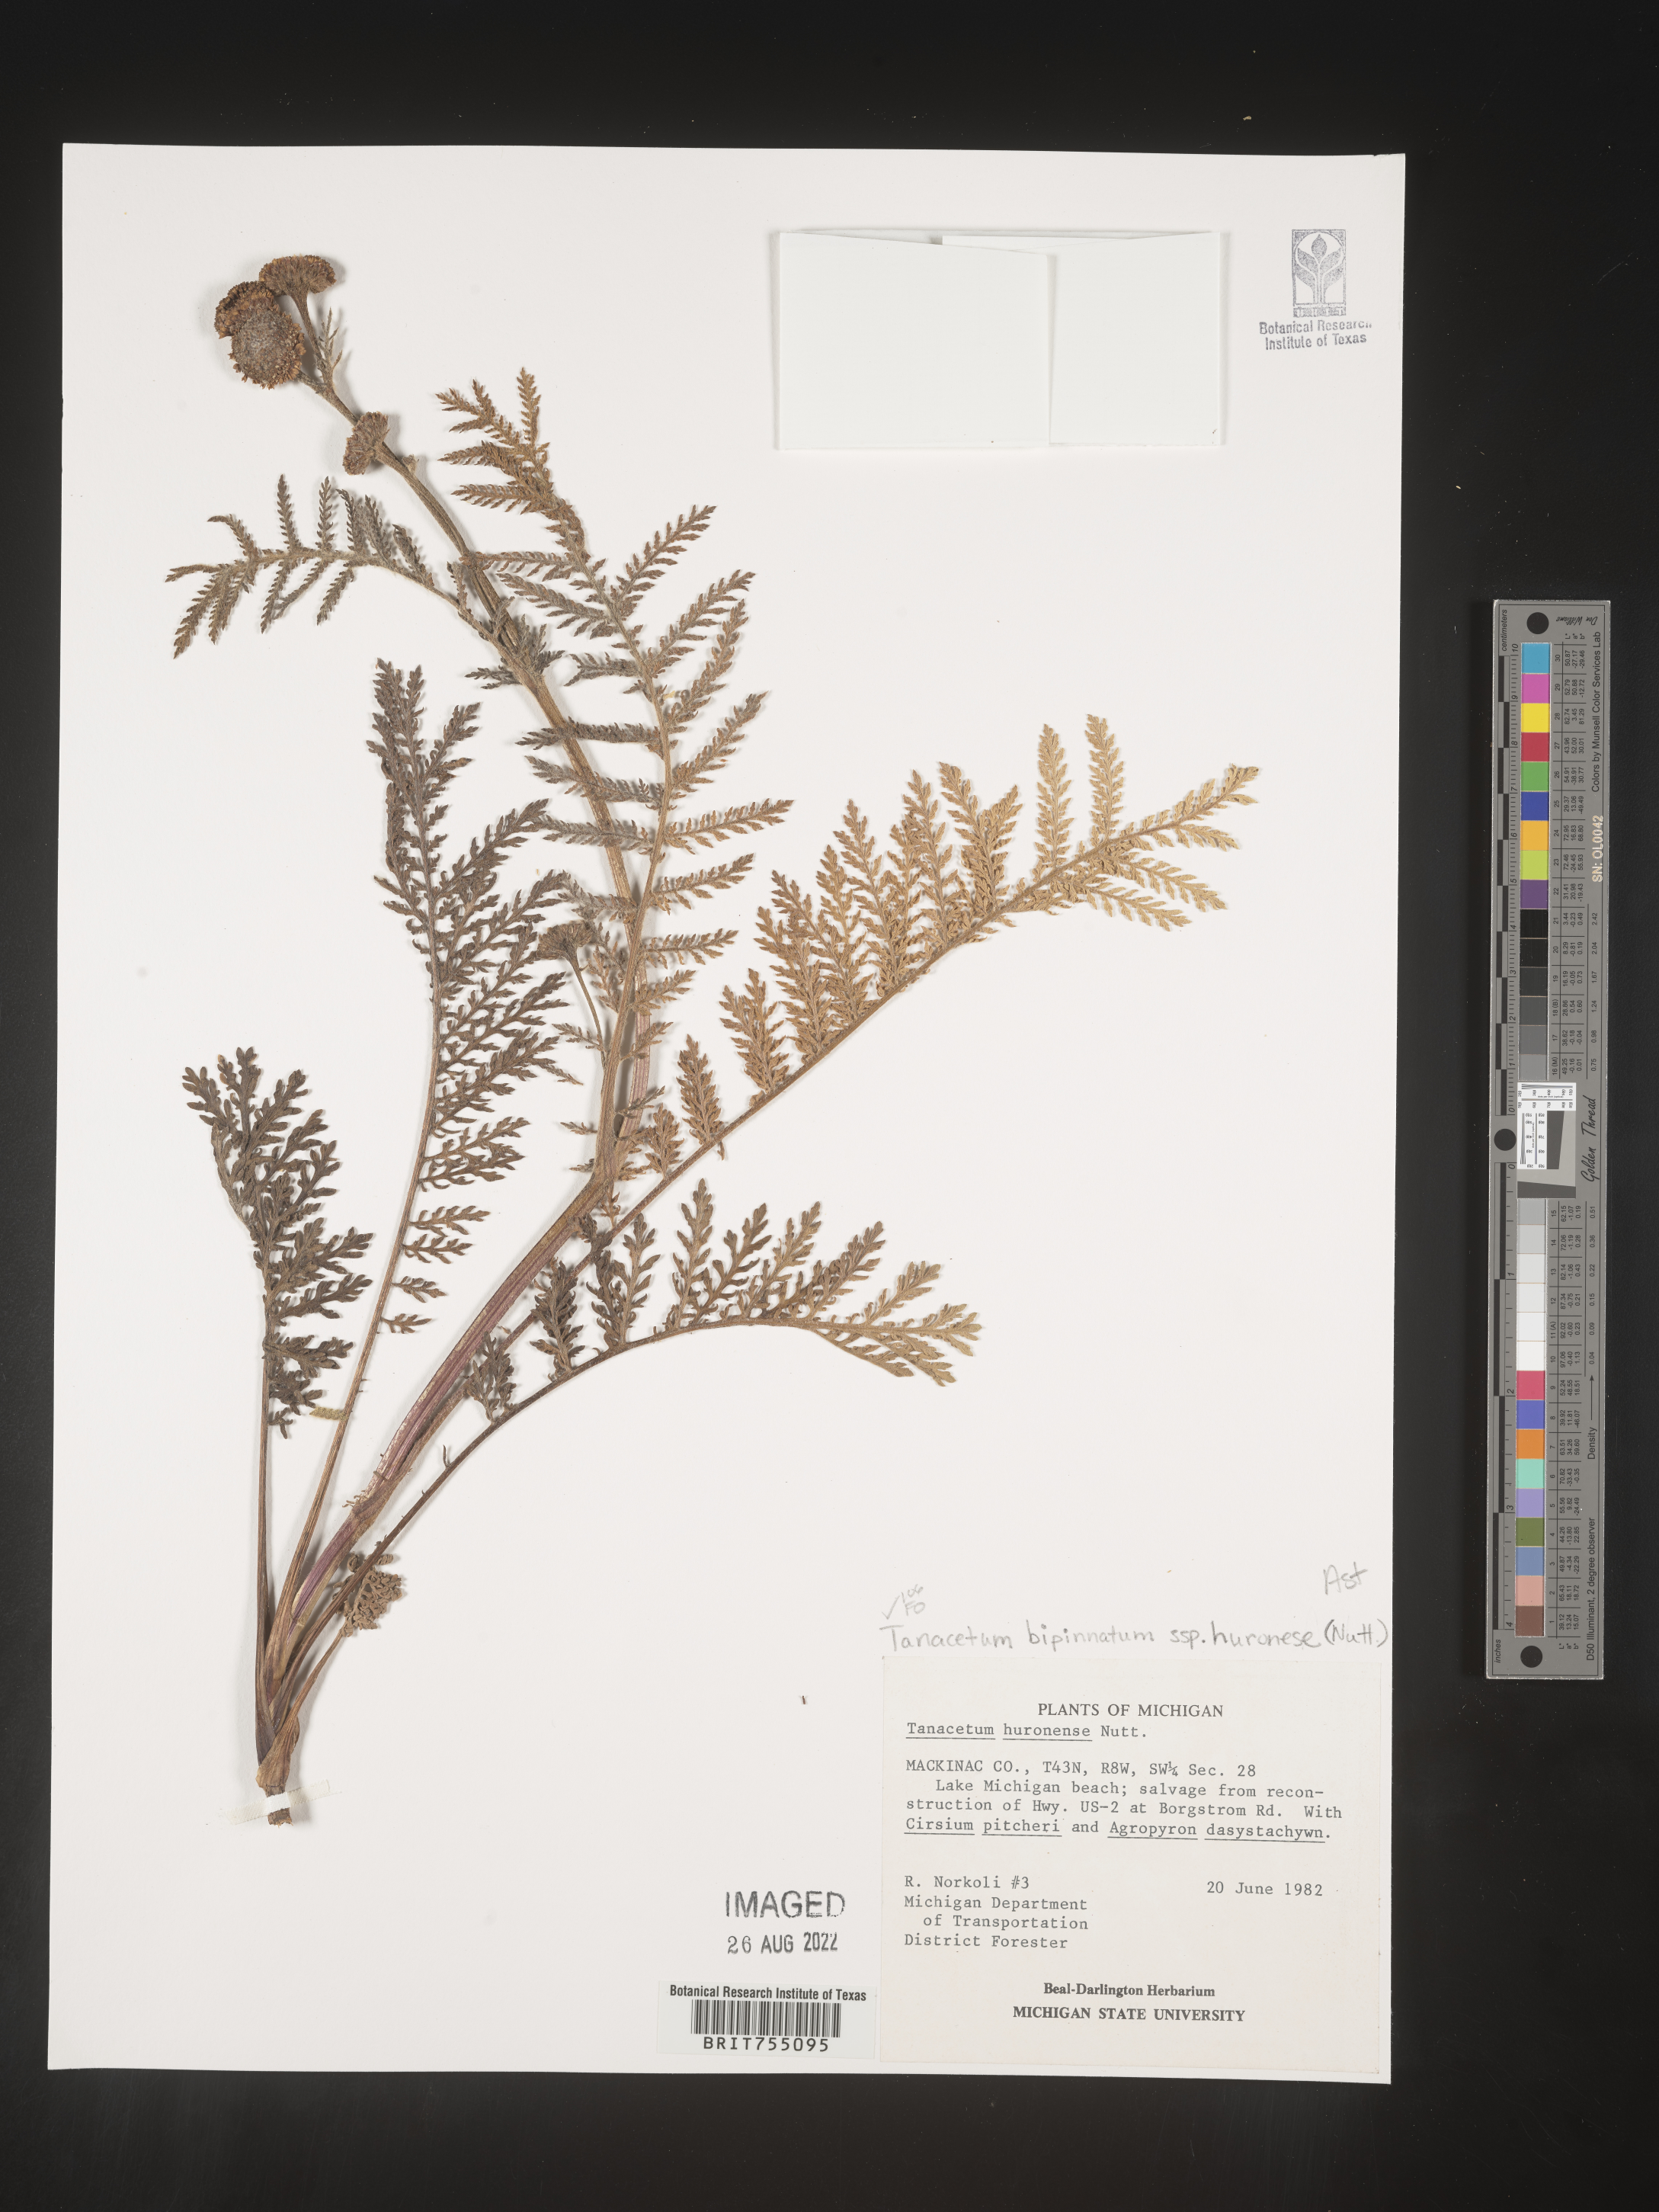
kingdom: Plantae
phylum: Tracheophyta
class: Magnoliopsida
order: Asterales
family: Asteraceae
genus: Tanacetum
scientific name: Tanacetum
